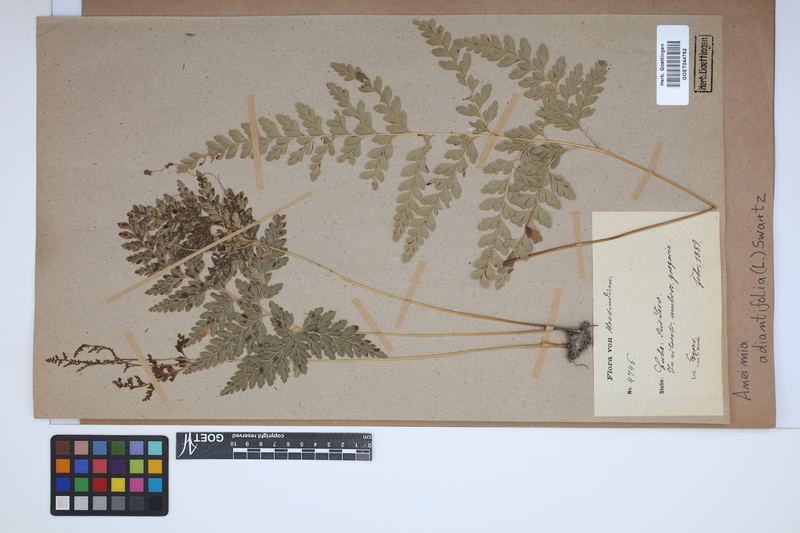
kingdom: Plantae
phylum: Tracheophyta
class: Polypodiopsida
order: Schizaeales
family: Anemiaceae
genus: Anemia
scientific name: Anemia adiantifolia
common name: Pine fern
